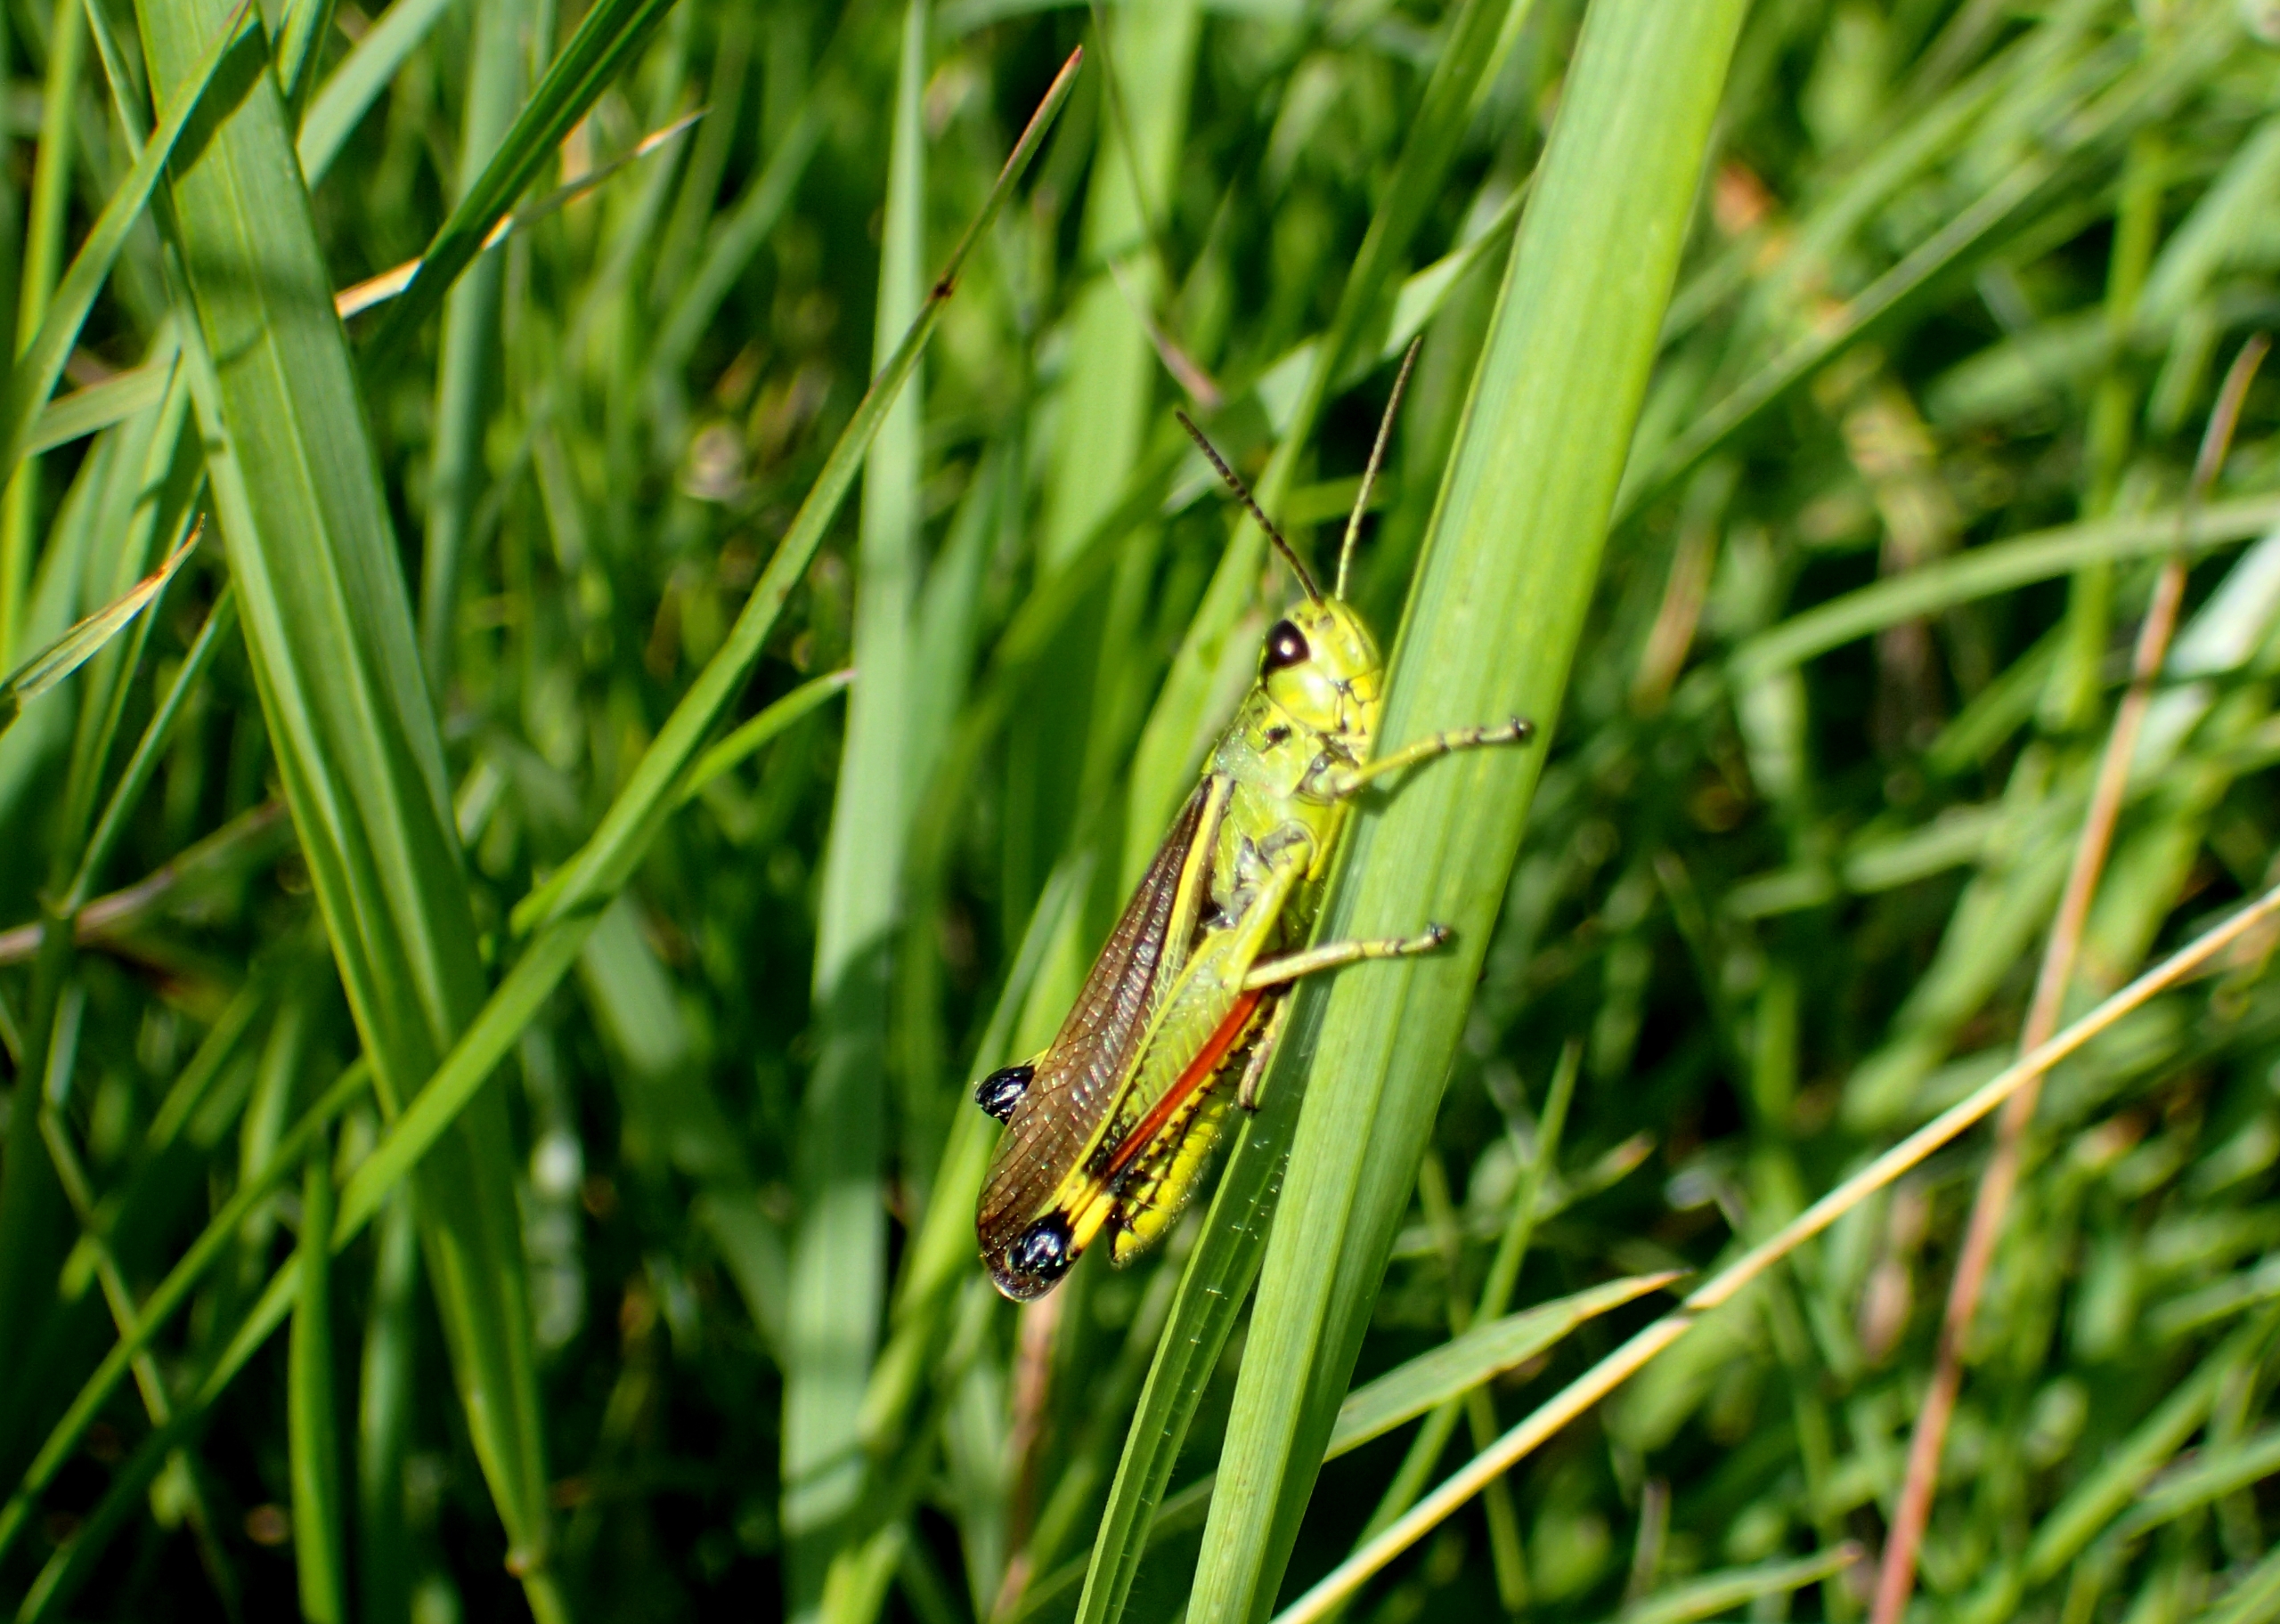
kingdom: Animalia
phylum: Arthropoda
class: Insecta
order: Orthoptera
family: Acrididae
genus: Stethophyma
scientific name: Stethophyma grossum
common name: Sumpgræshoppe
